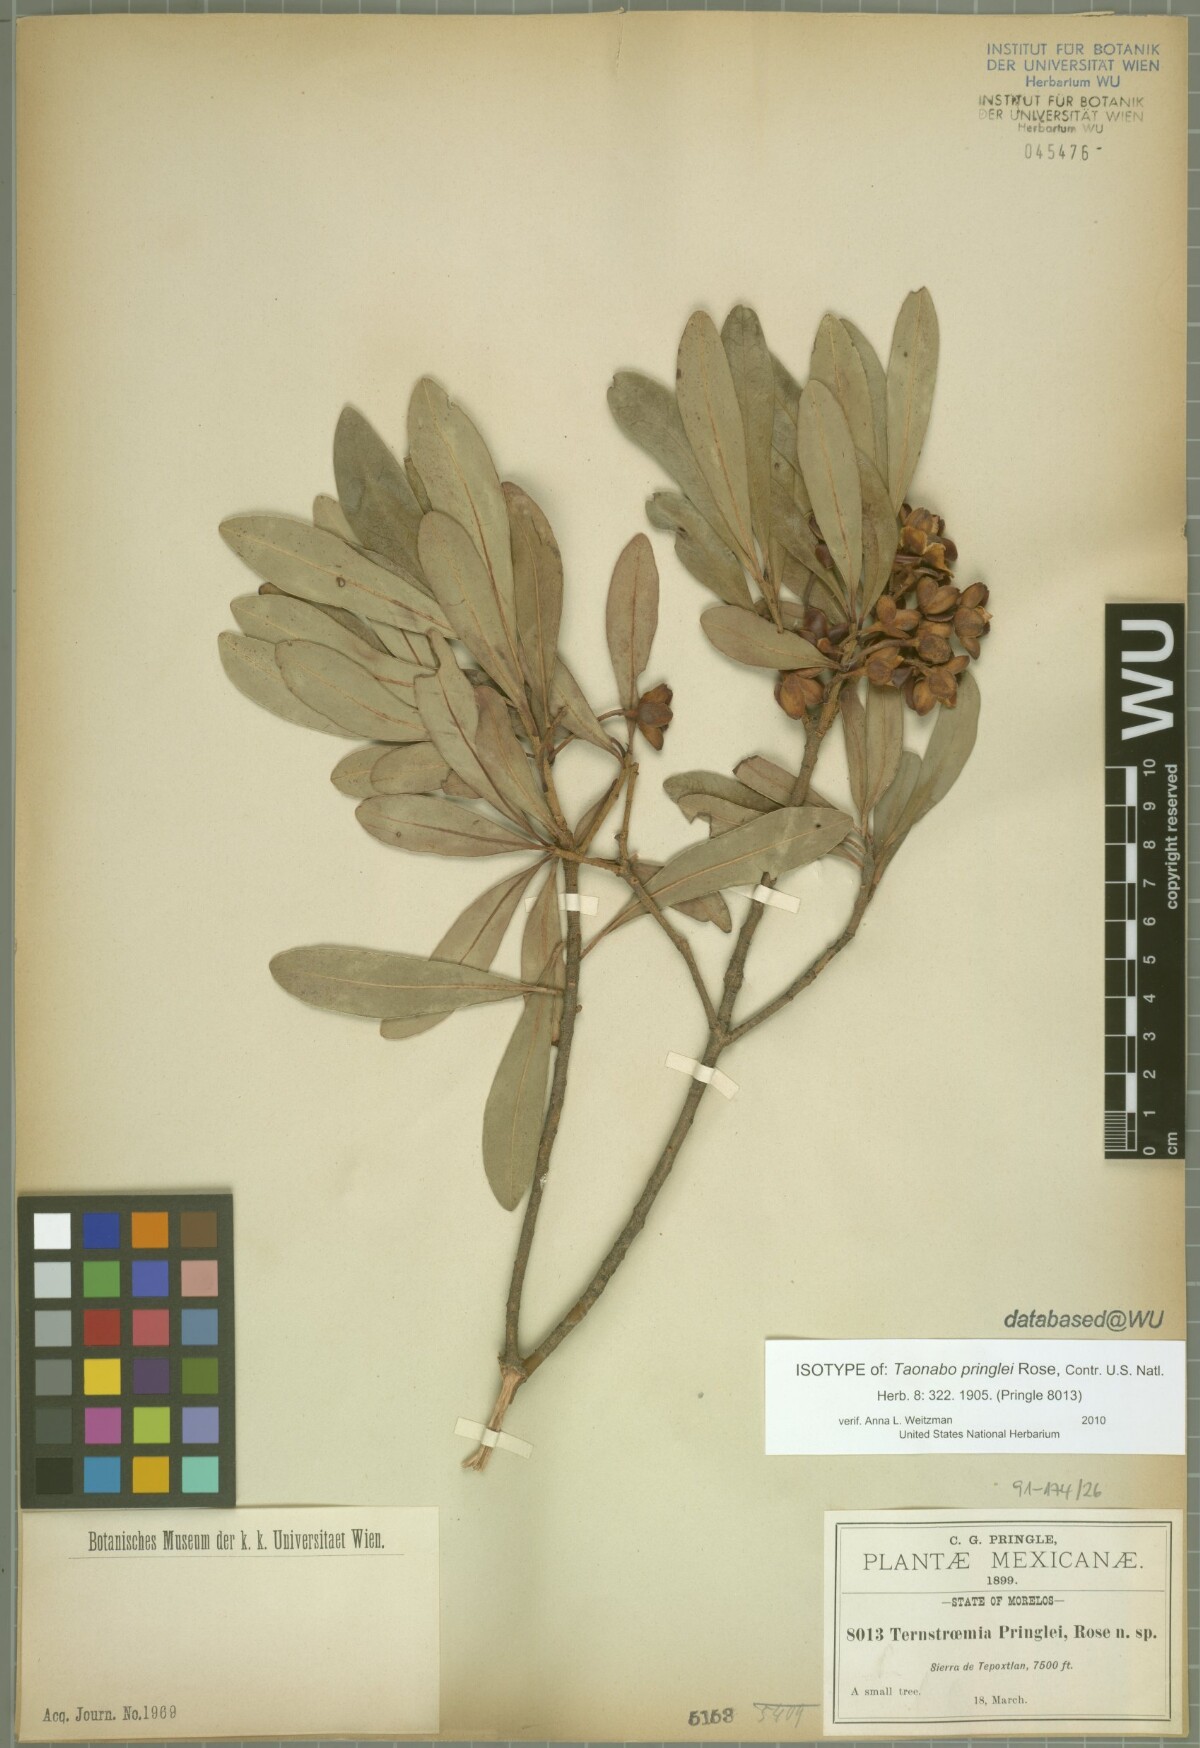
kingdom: Plantae
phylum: Tracheophyta
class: Magnoliopsida
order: Ericales
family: Pentaphylacaceae
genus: Ternstroemia
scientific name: Ternstroemia lineata
